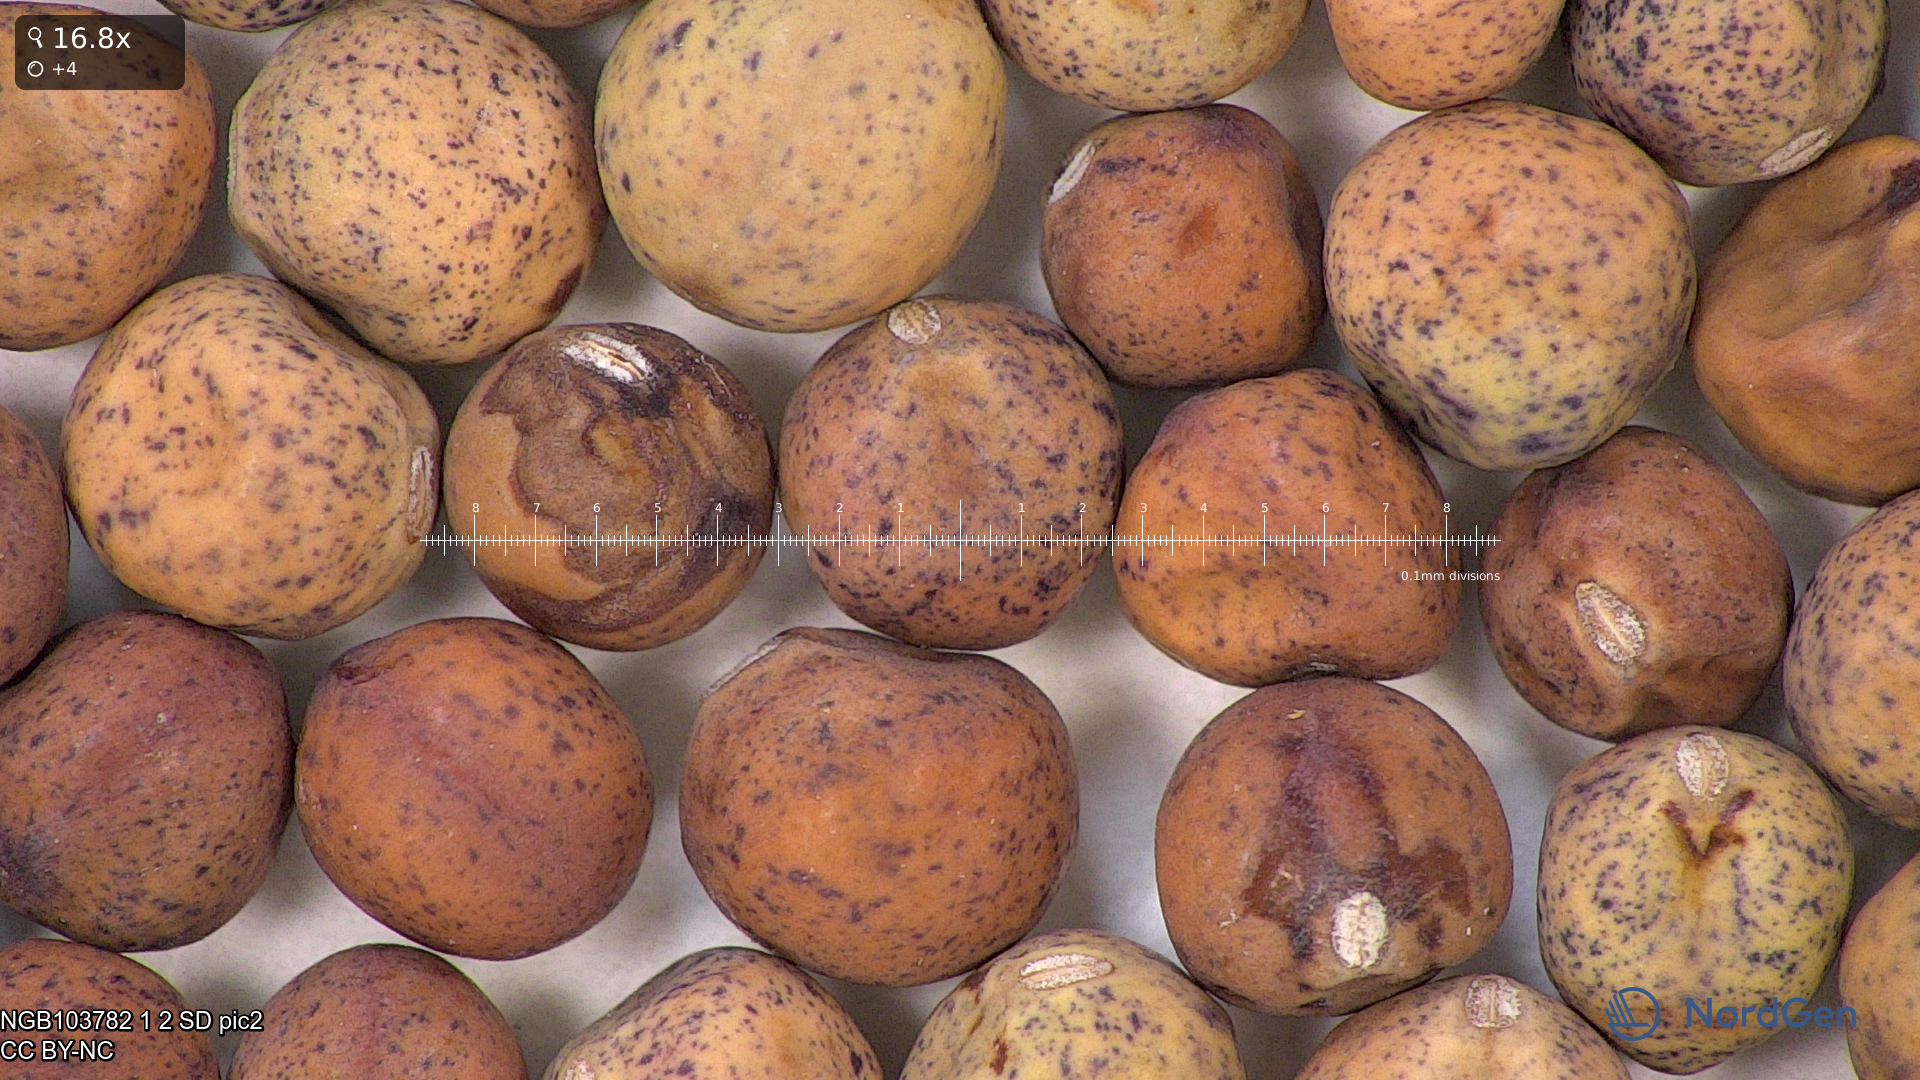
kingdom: Plantae
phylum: Tracheophyta
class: Magnoliopsida
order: Fabales
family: Fabaceae
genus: Lathyrus
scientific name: Lathyrus oleraceus
